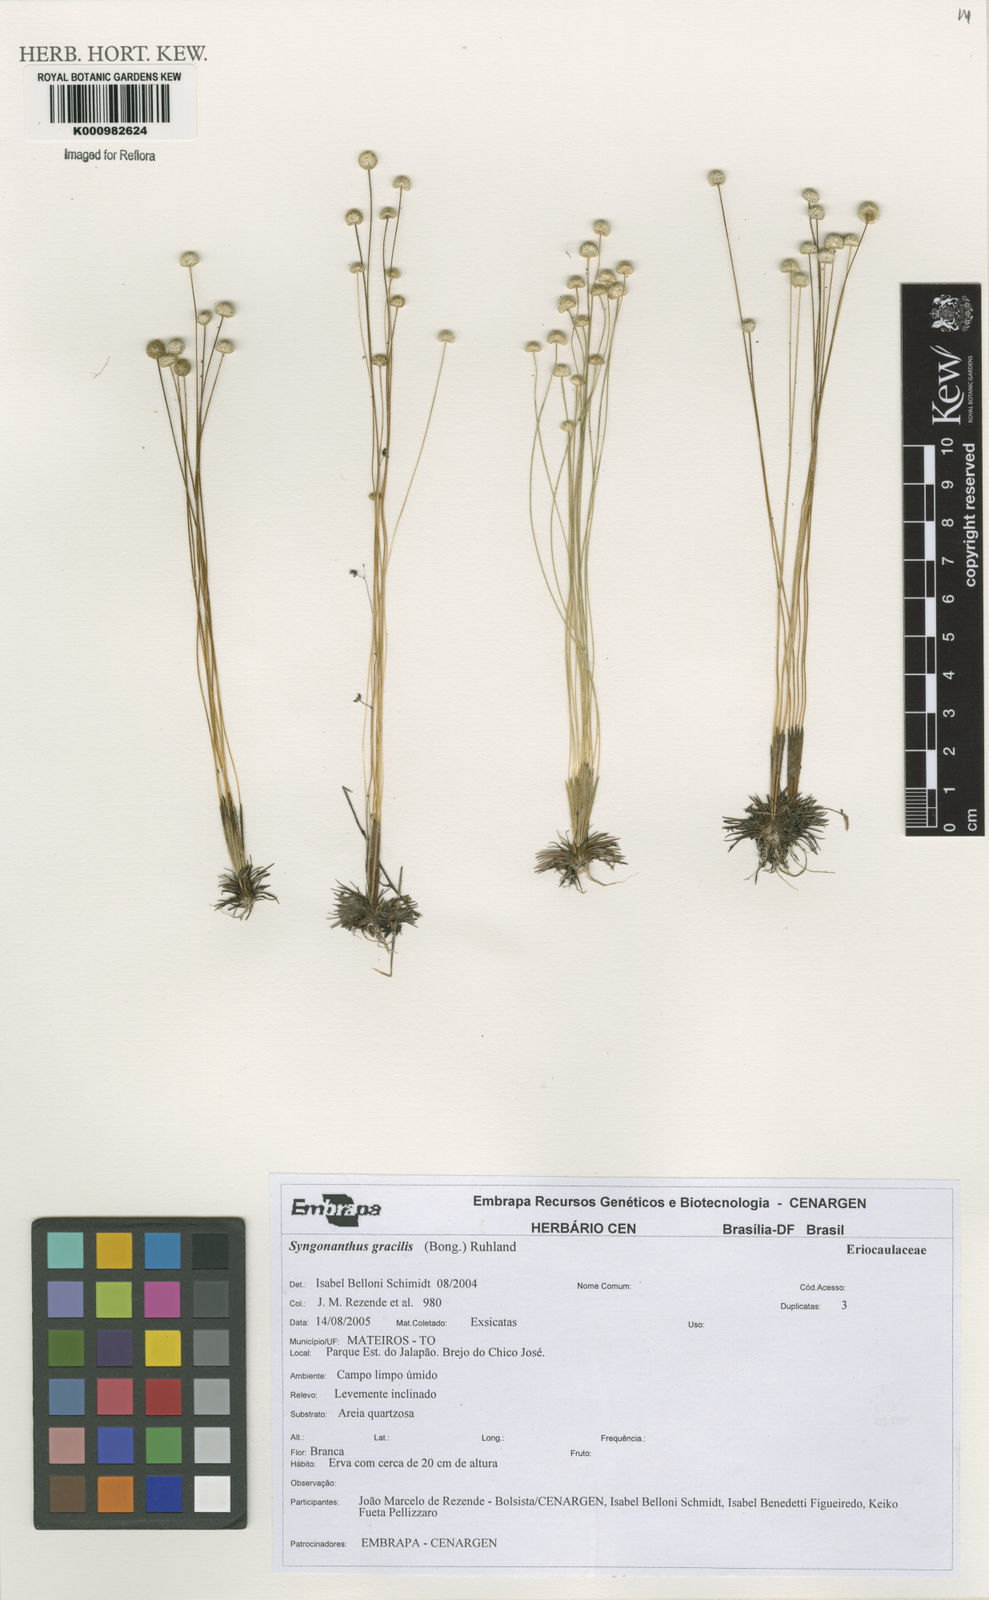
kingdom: Plantae
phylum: Tracheophyta
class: Liliopsida
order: Poales
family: Eriocaulaceae
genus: Syngonanthus
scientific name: Syngonanthus gracilis
